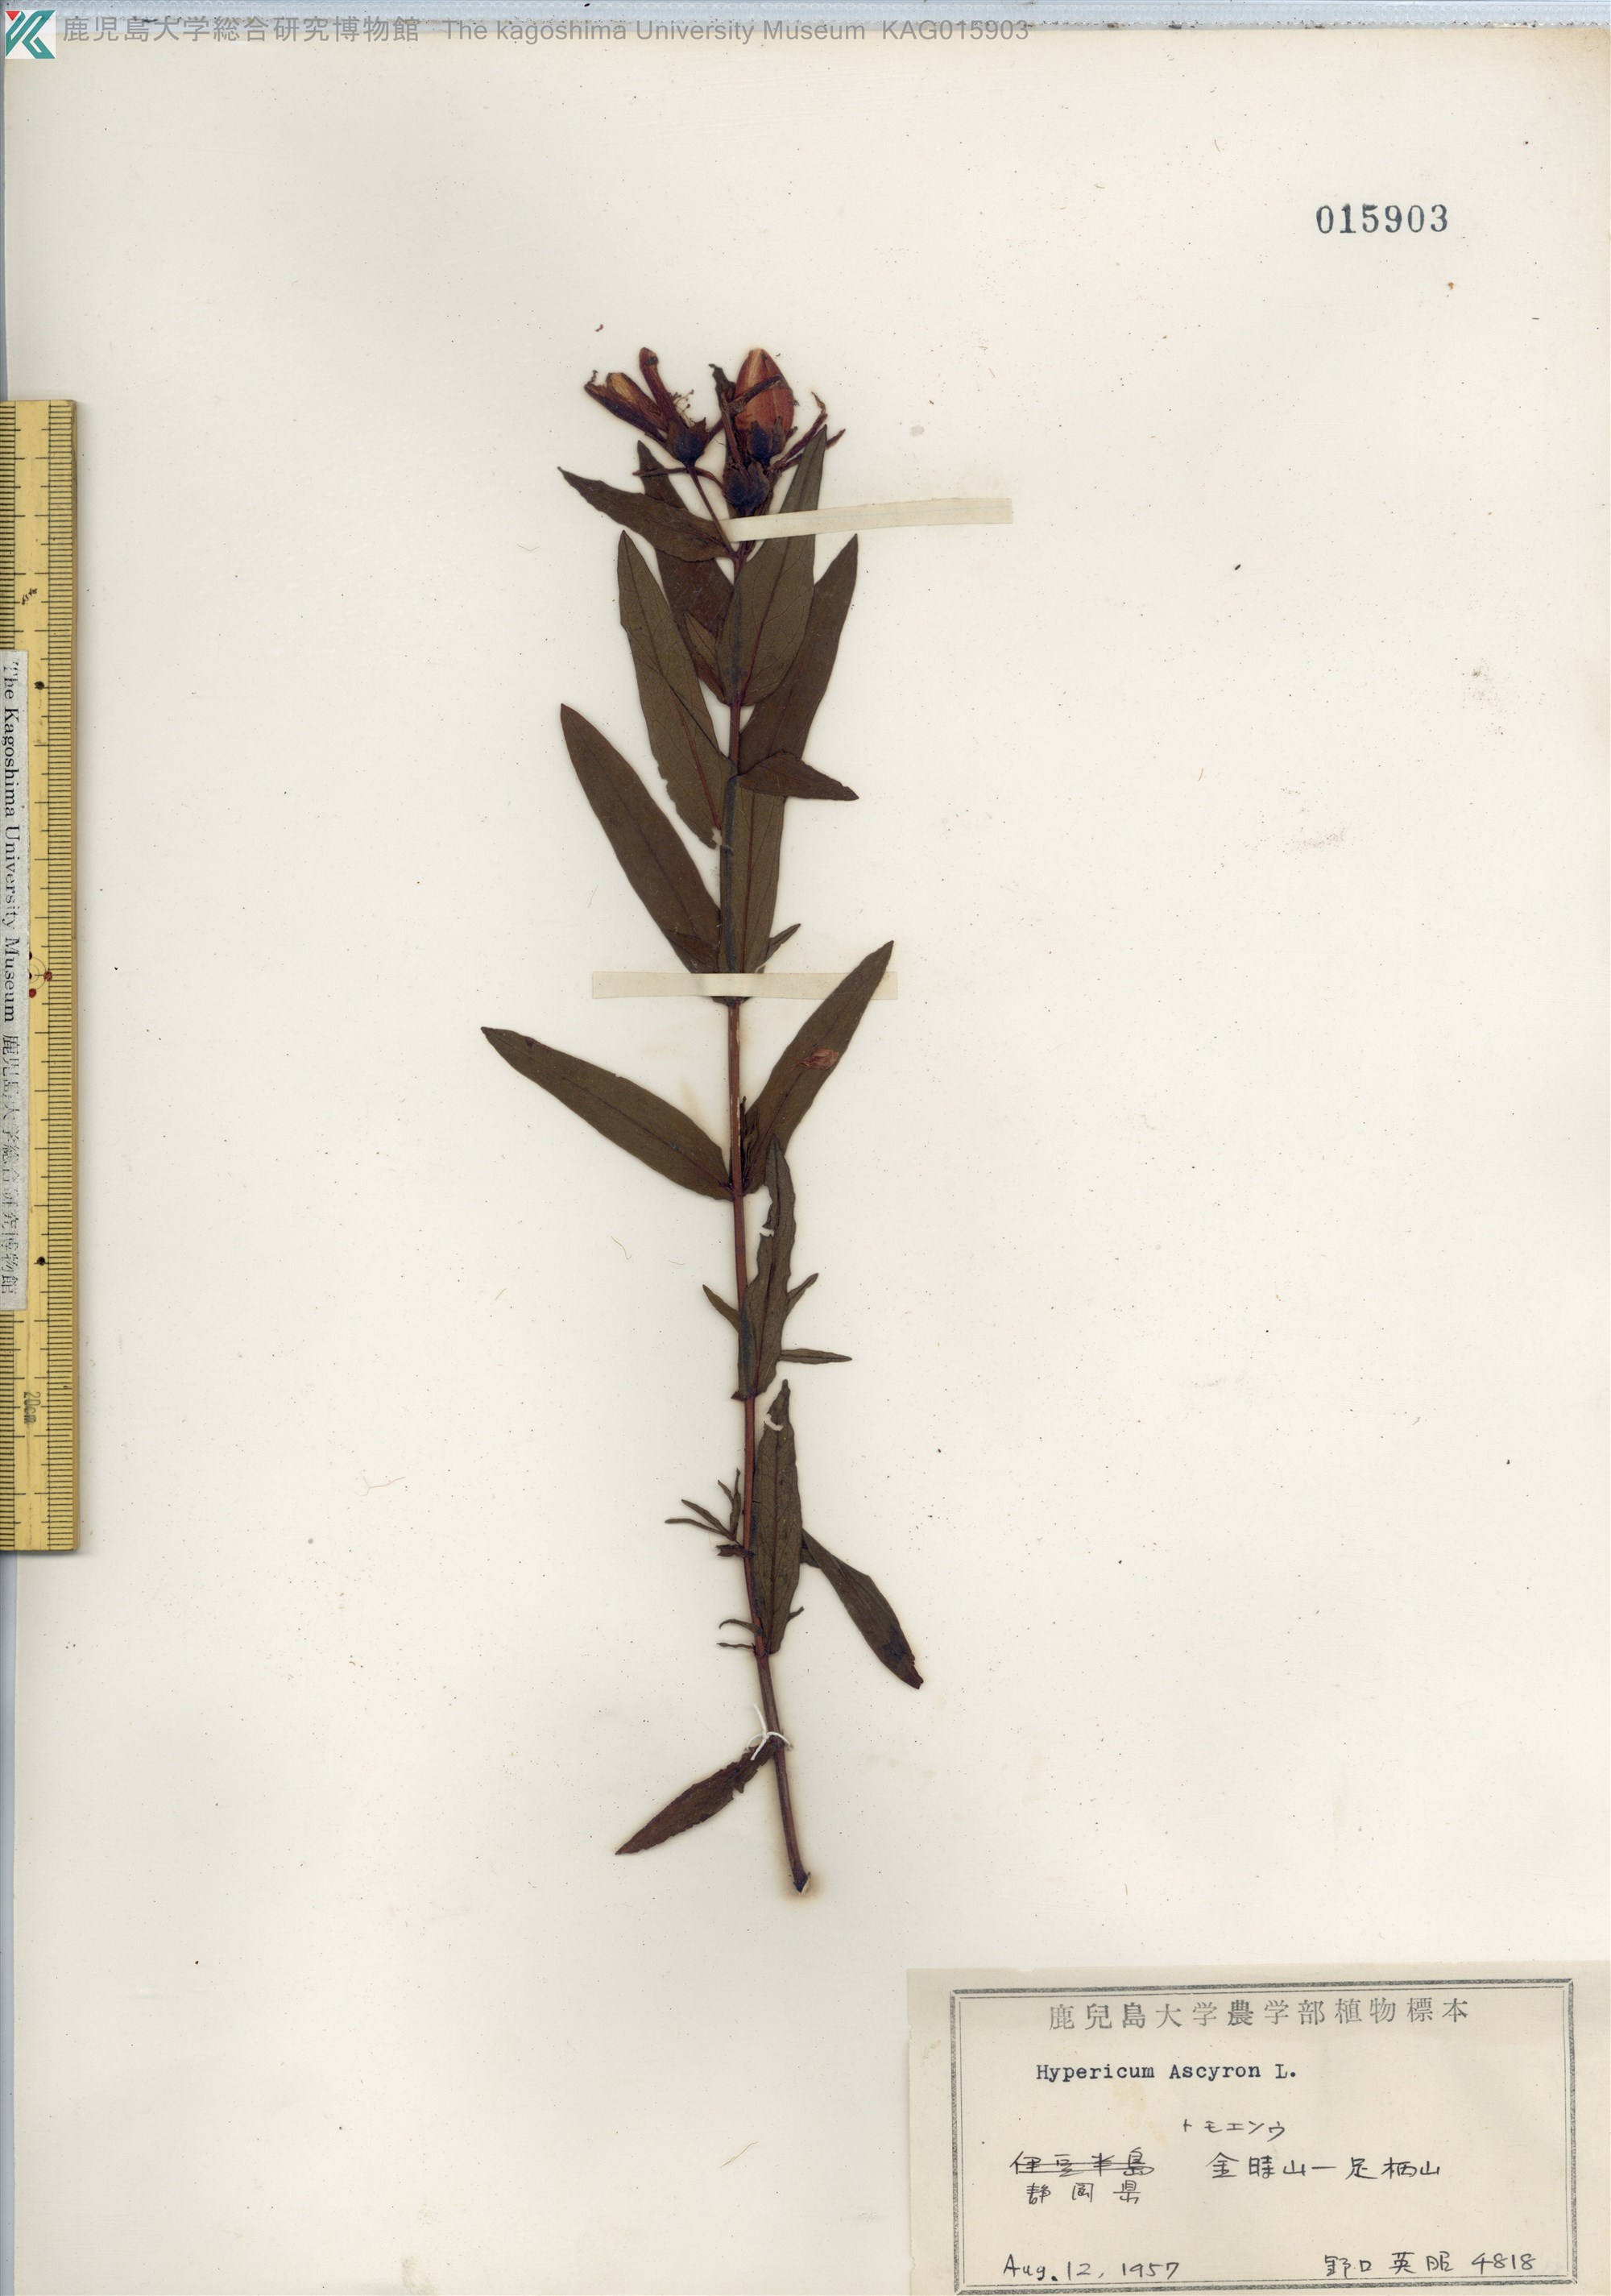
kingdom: Plantae
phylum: Tracheophyta
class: Magnoliopsida
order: Malpighiales
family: Hypericaceae
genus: Hypericum
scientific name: Hypericum ascyron
